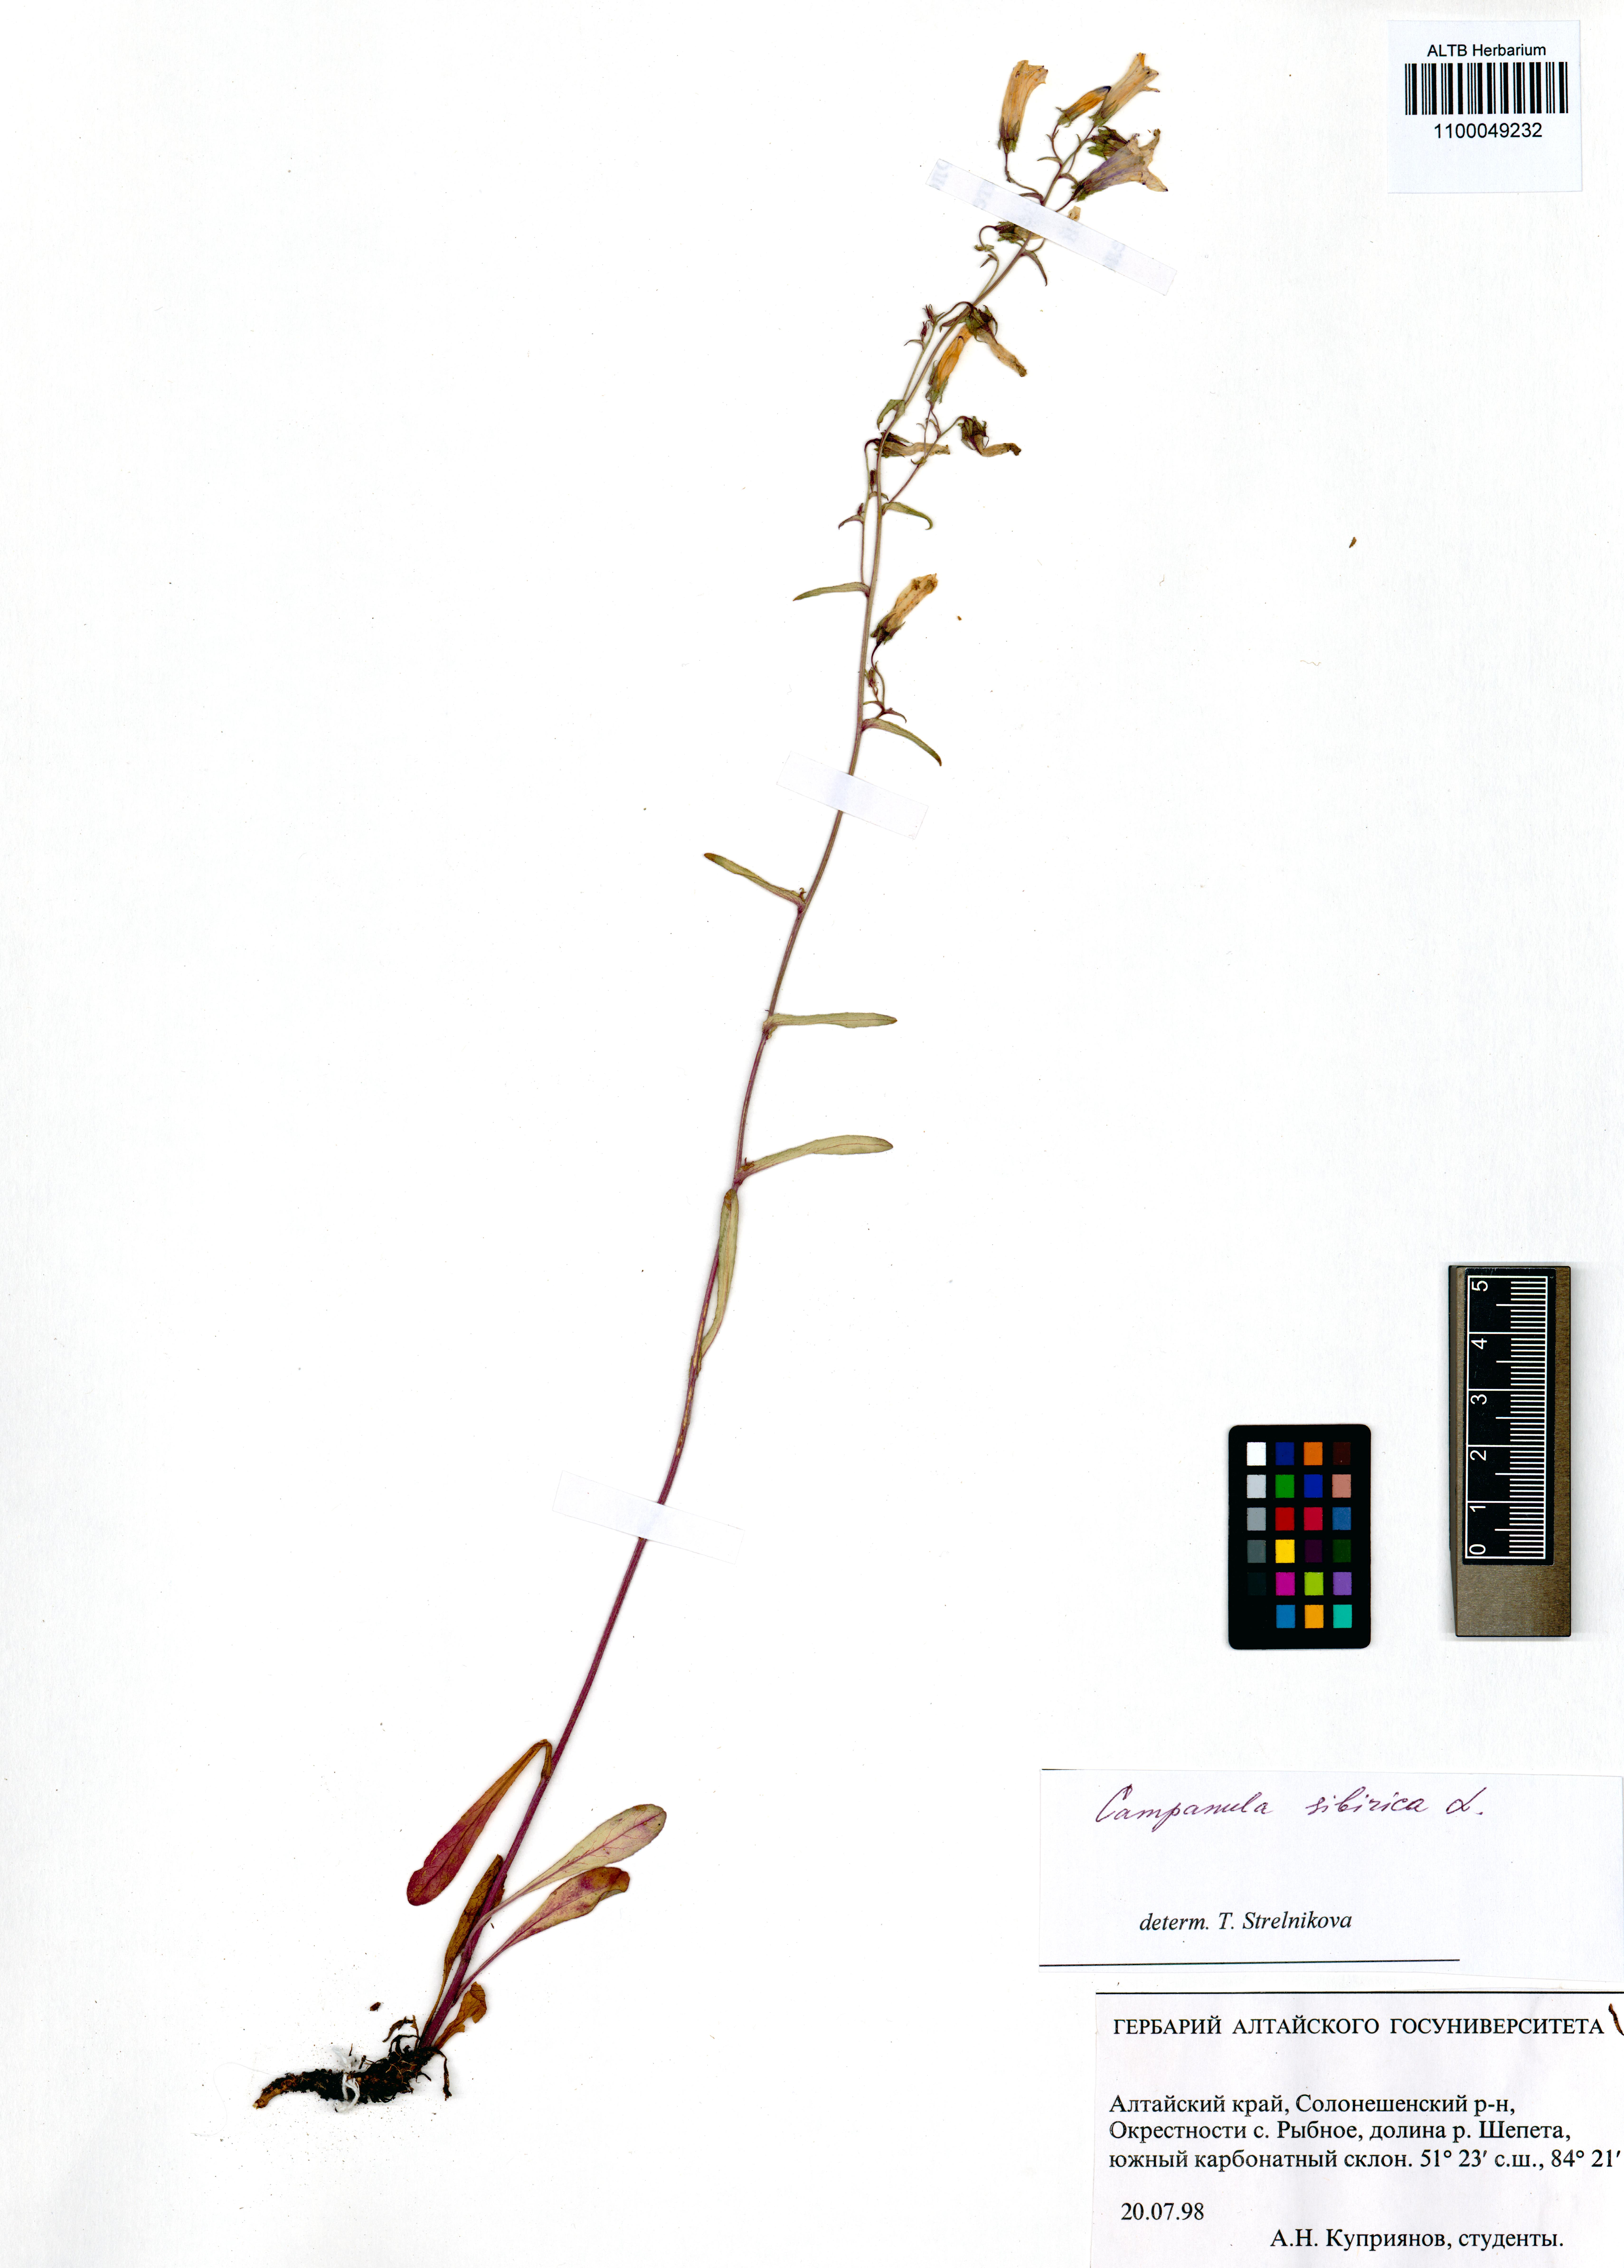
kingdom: Plantae
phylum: Tracheophyta
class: Magnoliopsida
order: Asterales
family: Campanulaceae
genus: Campanula
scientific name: Campanula sibirica
